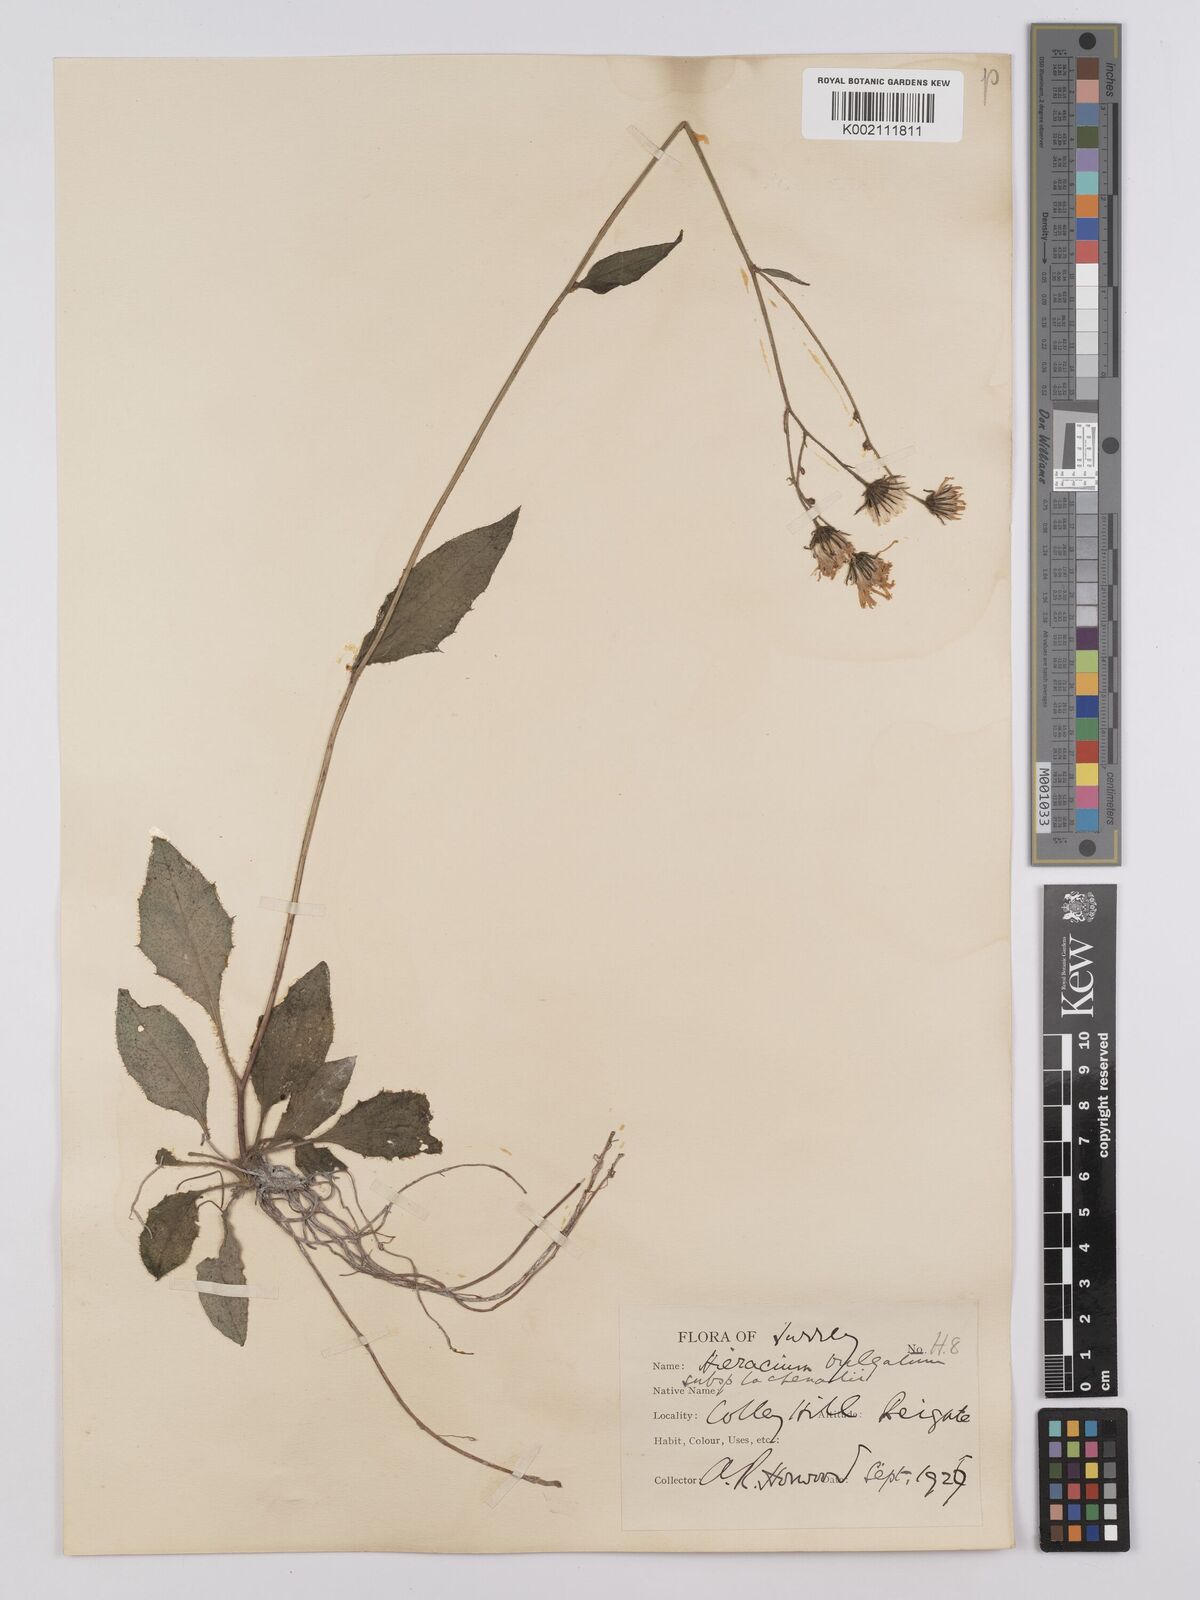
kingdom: Plantae
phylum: Tracheophyta
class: Magnoliopsida
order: Asterales
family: Asteraceae
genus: Hieracium
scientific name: Hieracium lachenalii
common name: Common hawkweed
